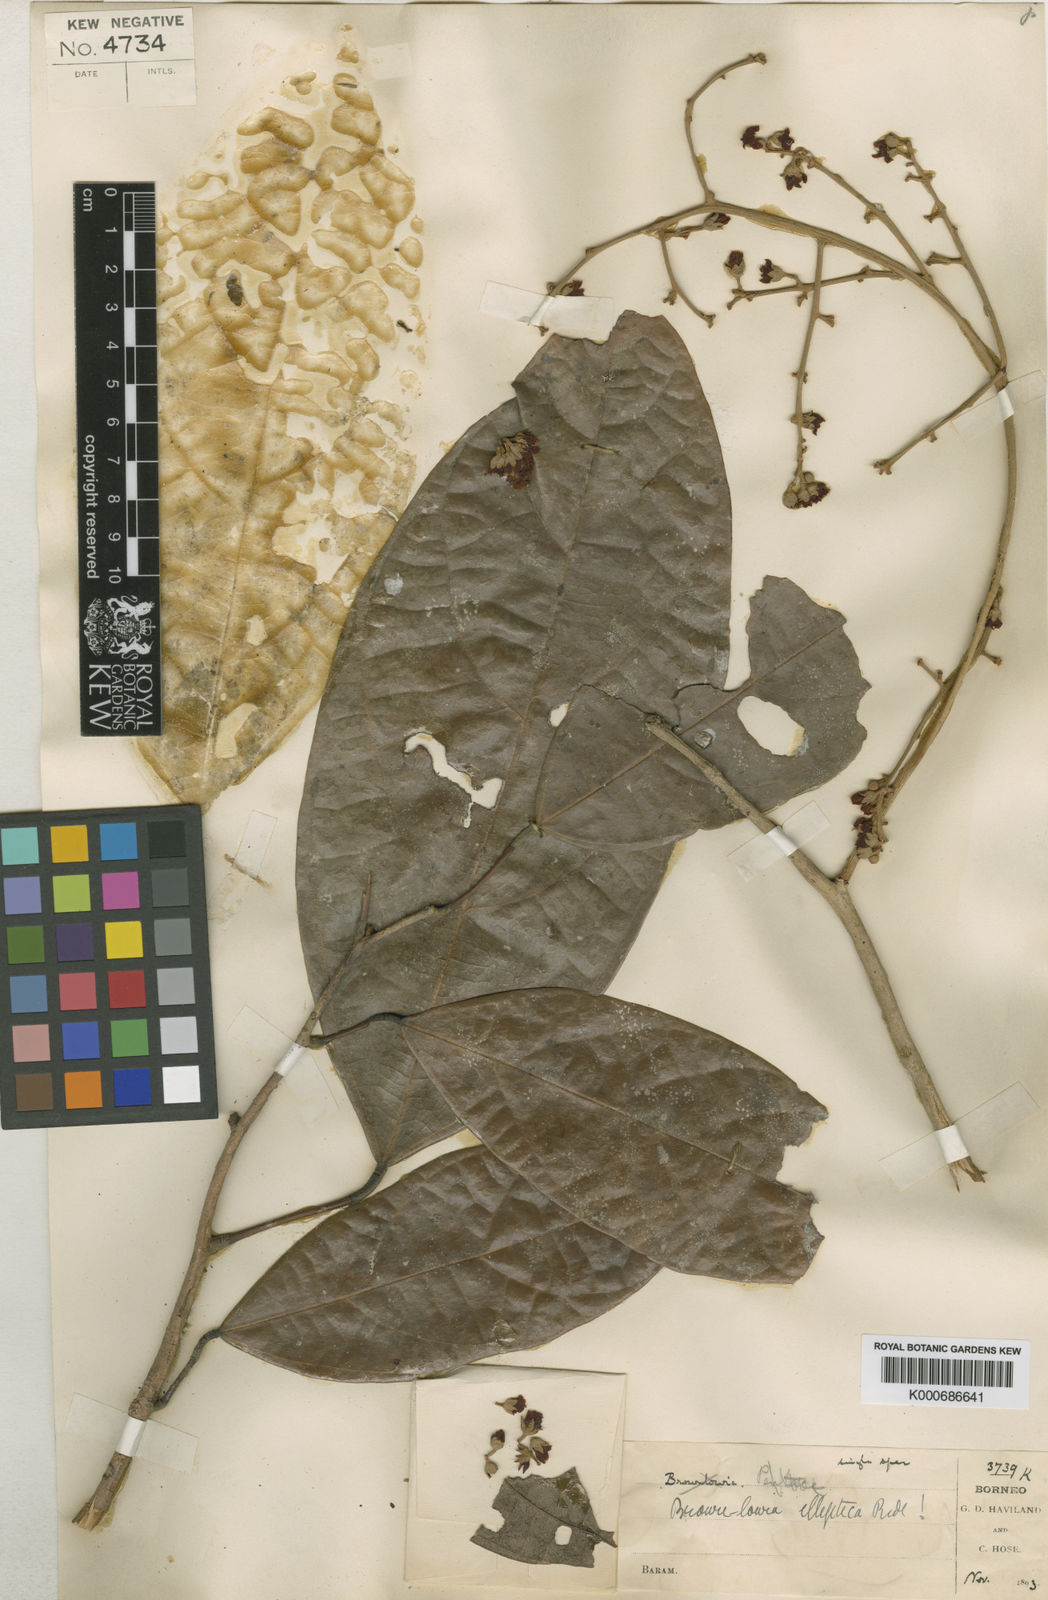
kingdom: Plantae
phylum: Tracheophyta
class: Magnoliopsida
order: Malvales
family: Malvaceae
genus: Brownlowia
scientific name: Brownlowia elliptica
